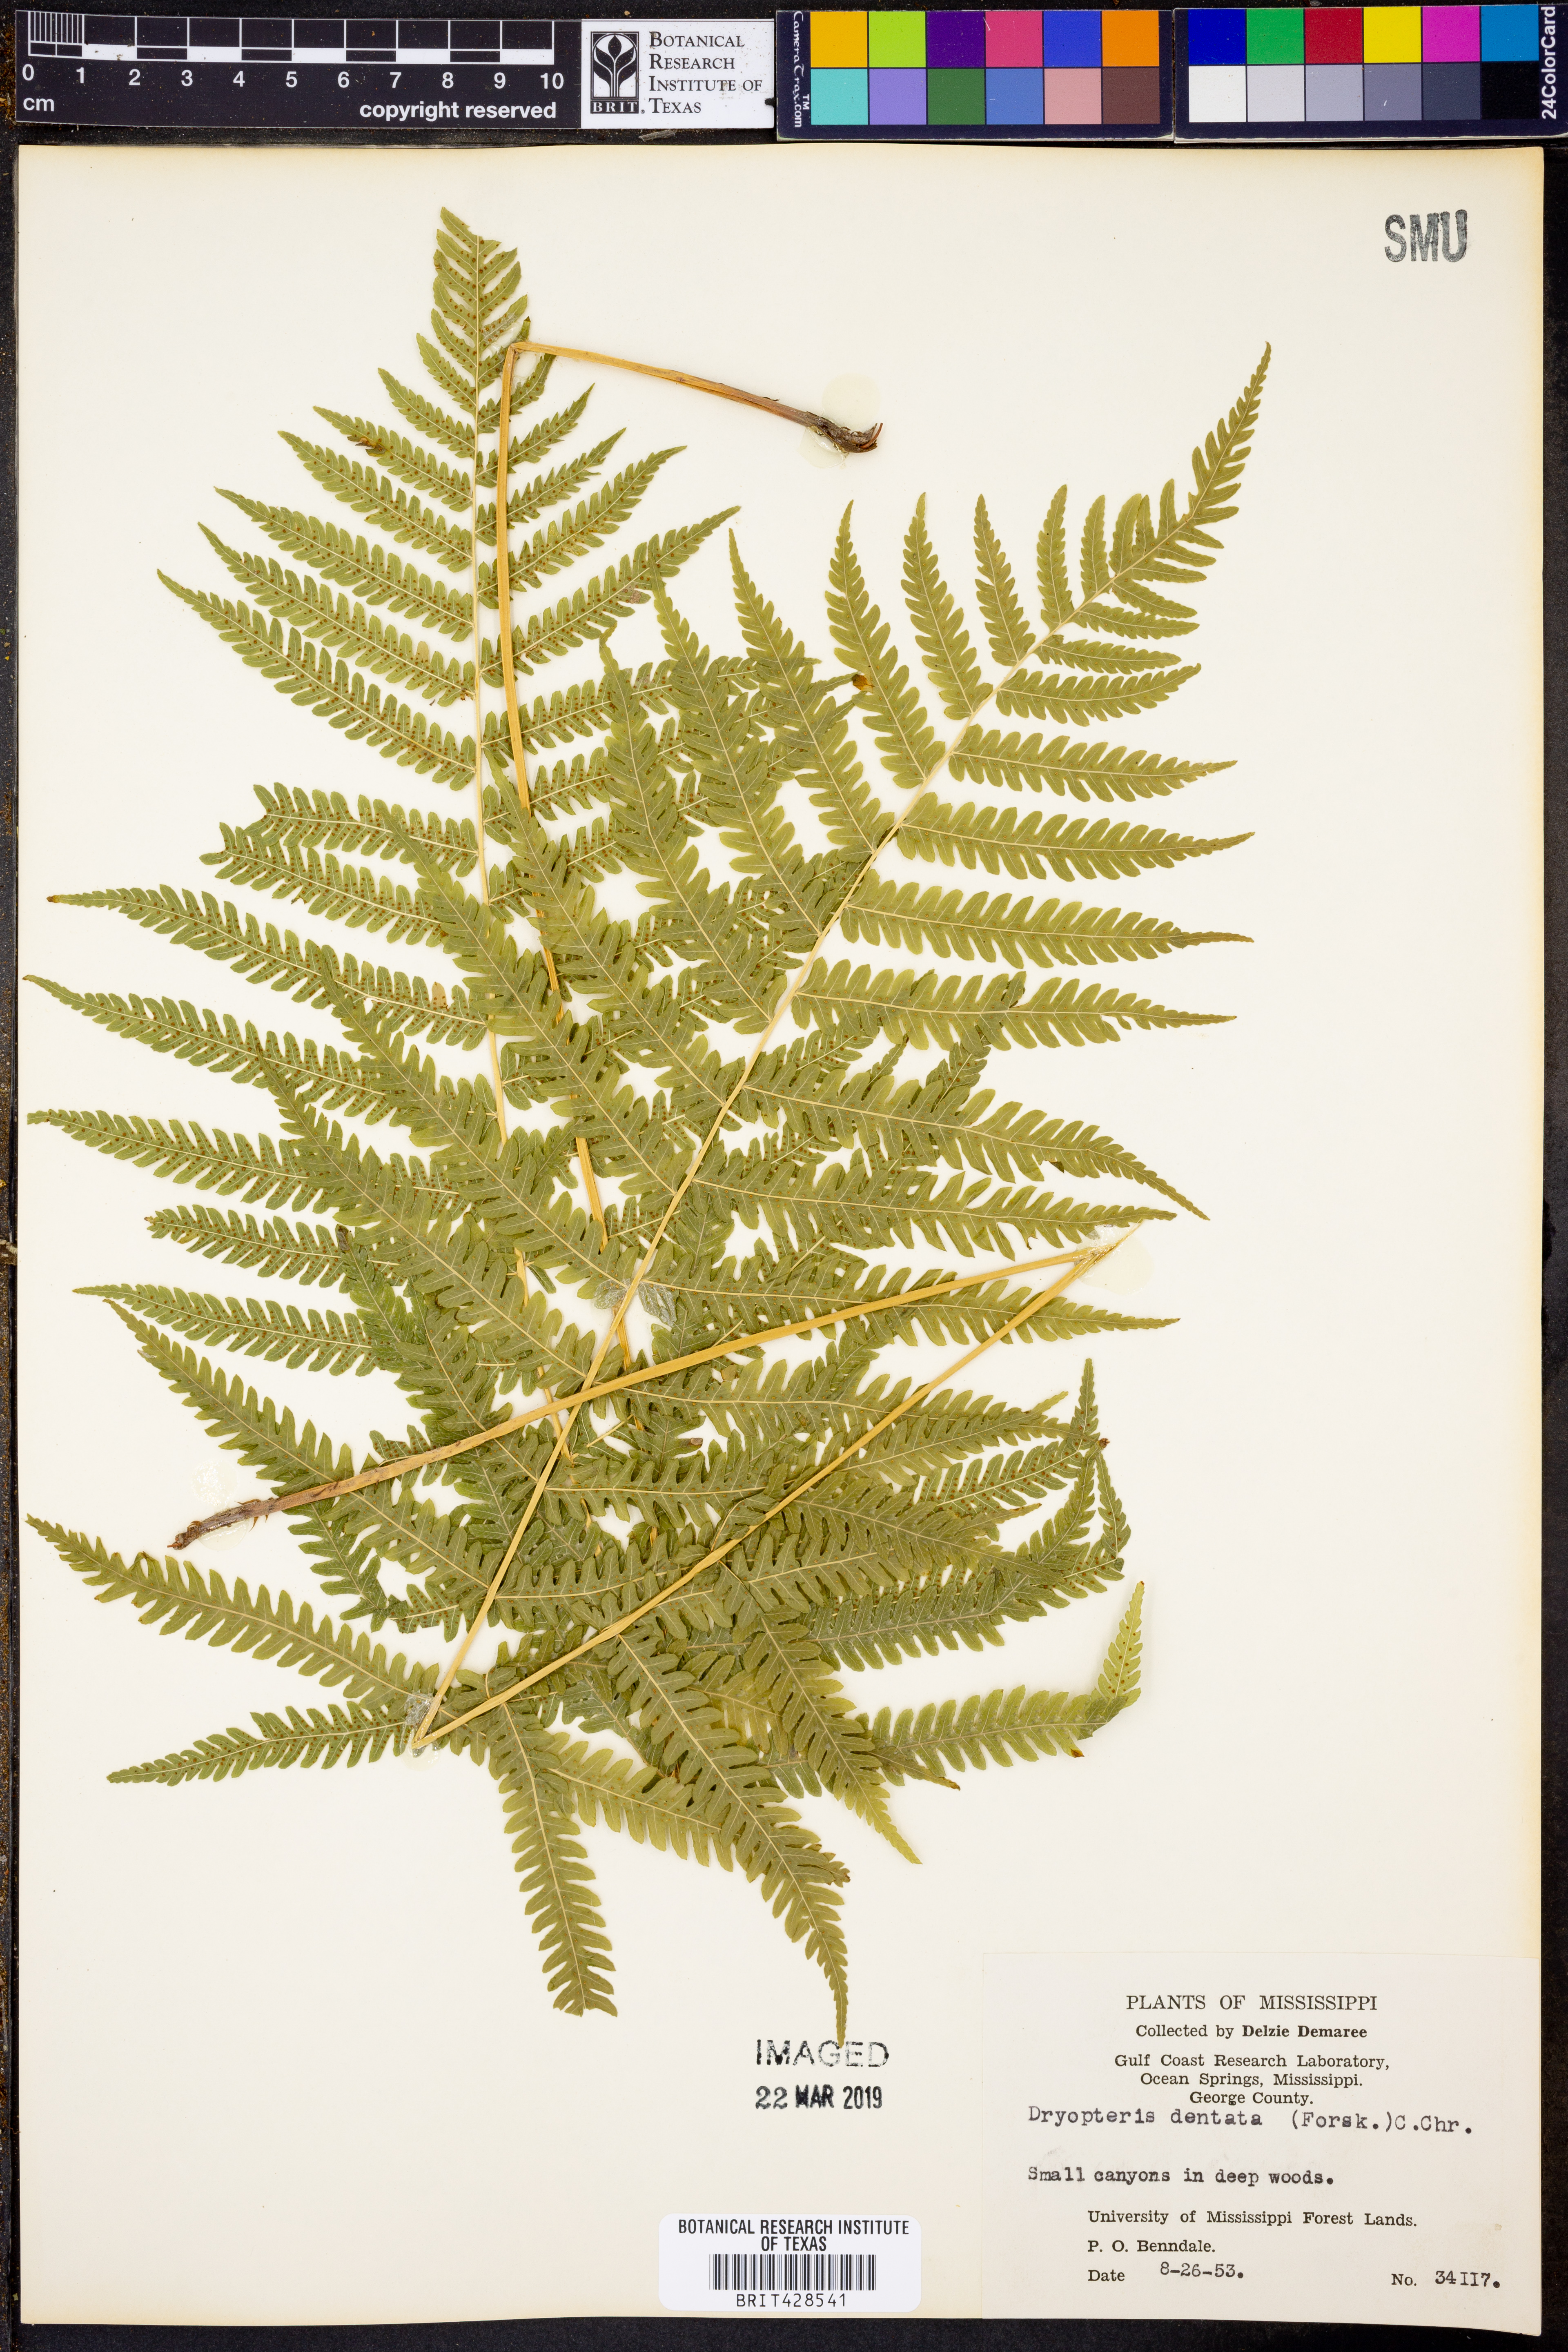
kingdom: Plantae
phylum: Tracheophyta
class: Polypodiopsida
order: Polypodiales
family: Thelypteridaceae
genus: Christella
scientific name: Christella dentata
